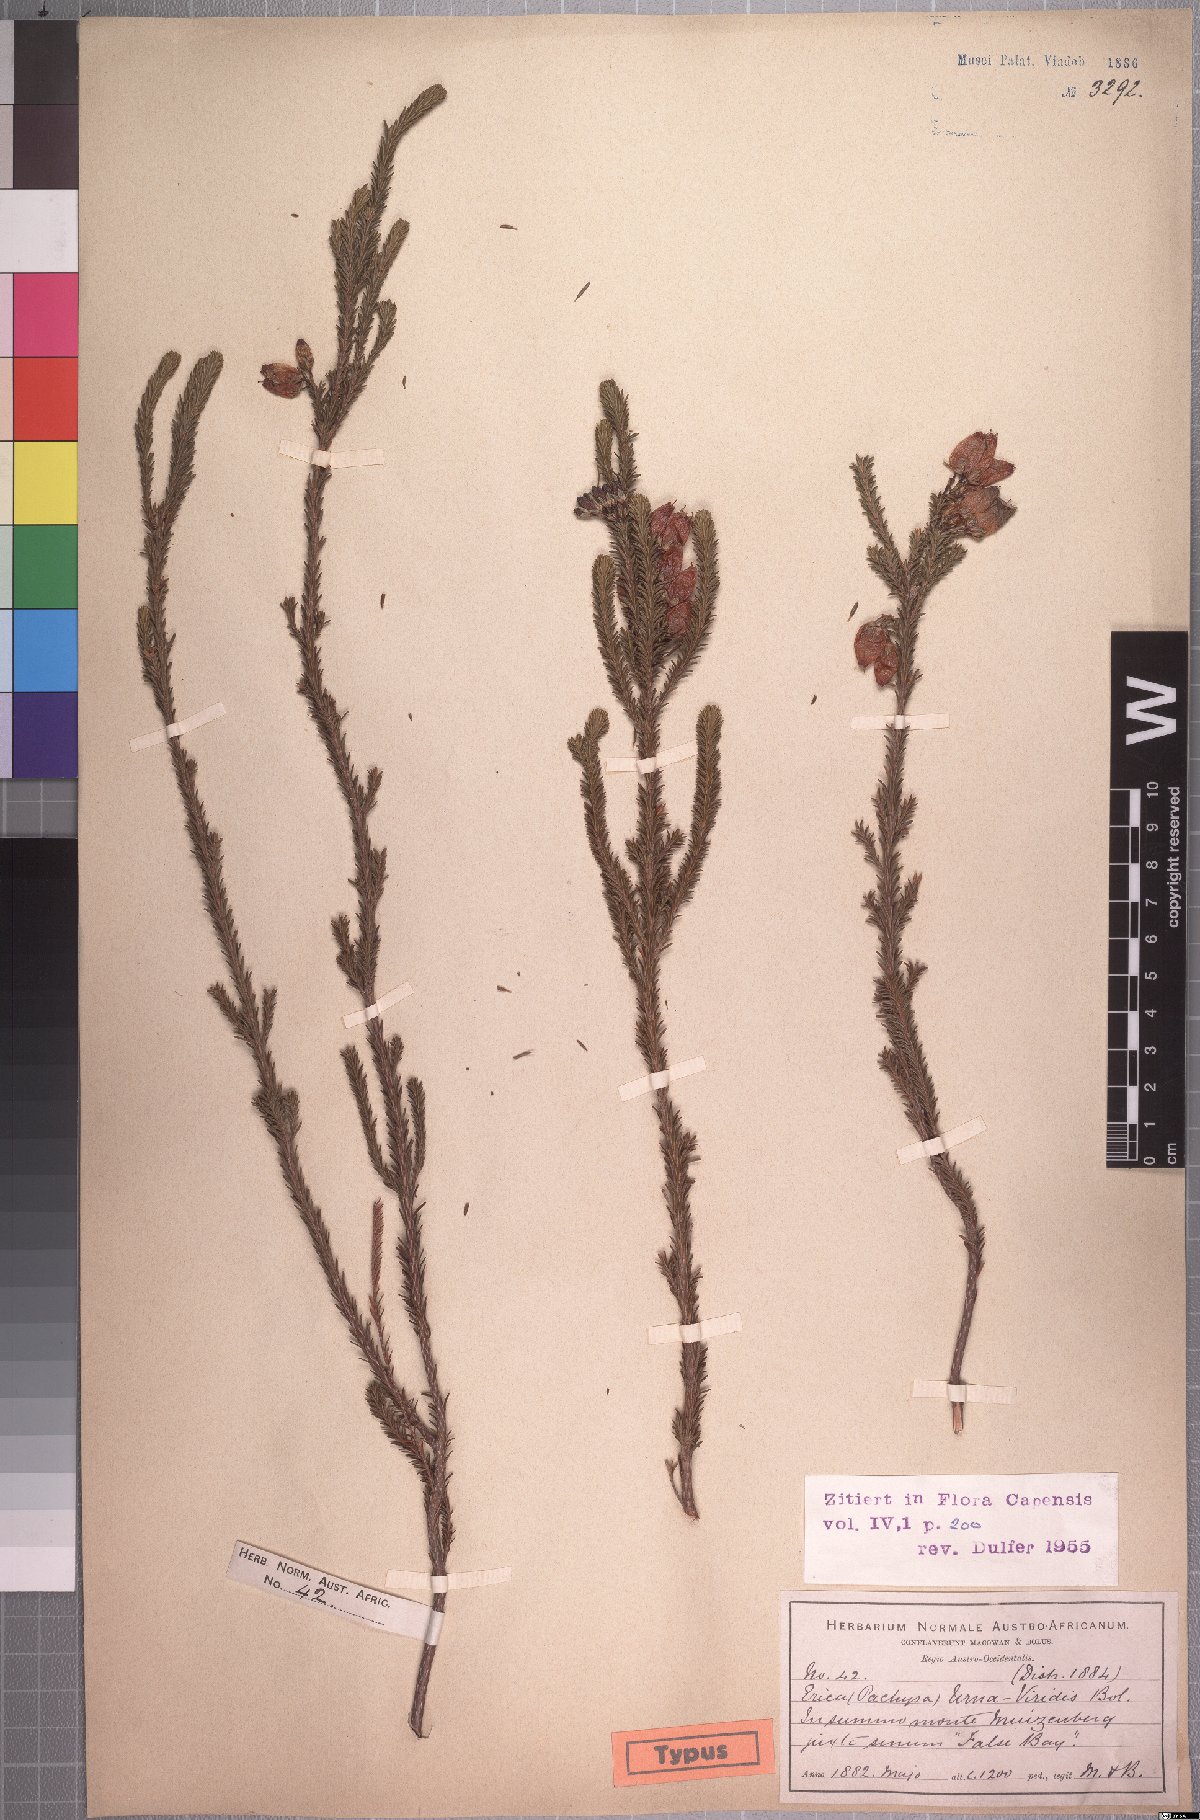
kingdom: Plantae
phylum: Tracheophyta
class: Magnoliopsida
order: Ericales
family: Ericaceae
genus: Erica
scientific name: Erica urna-viridis
